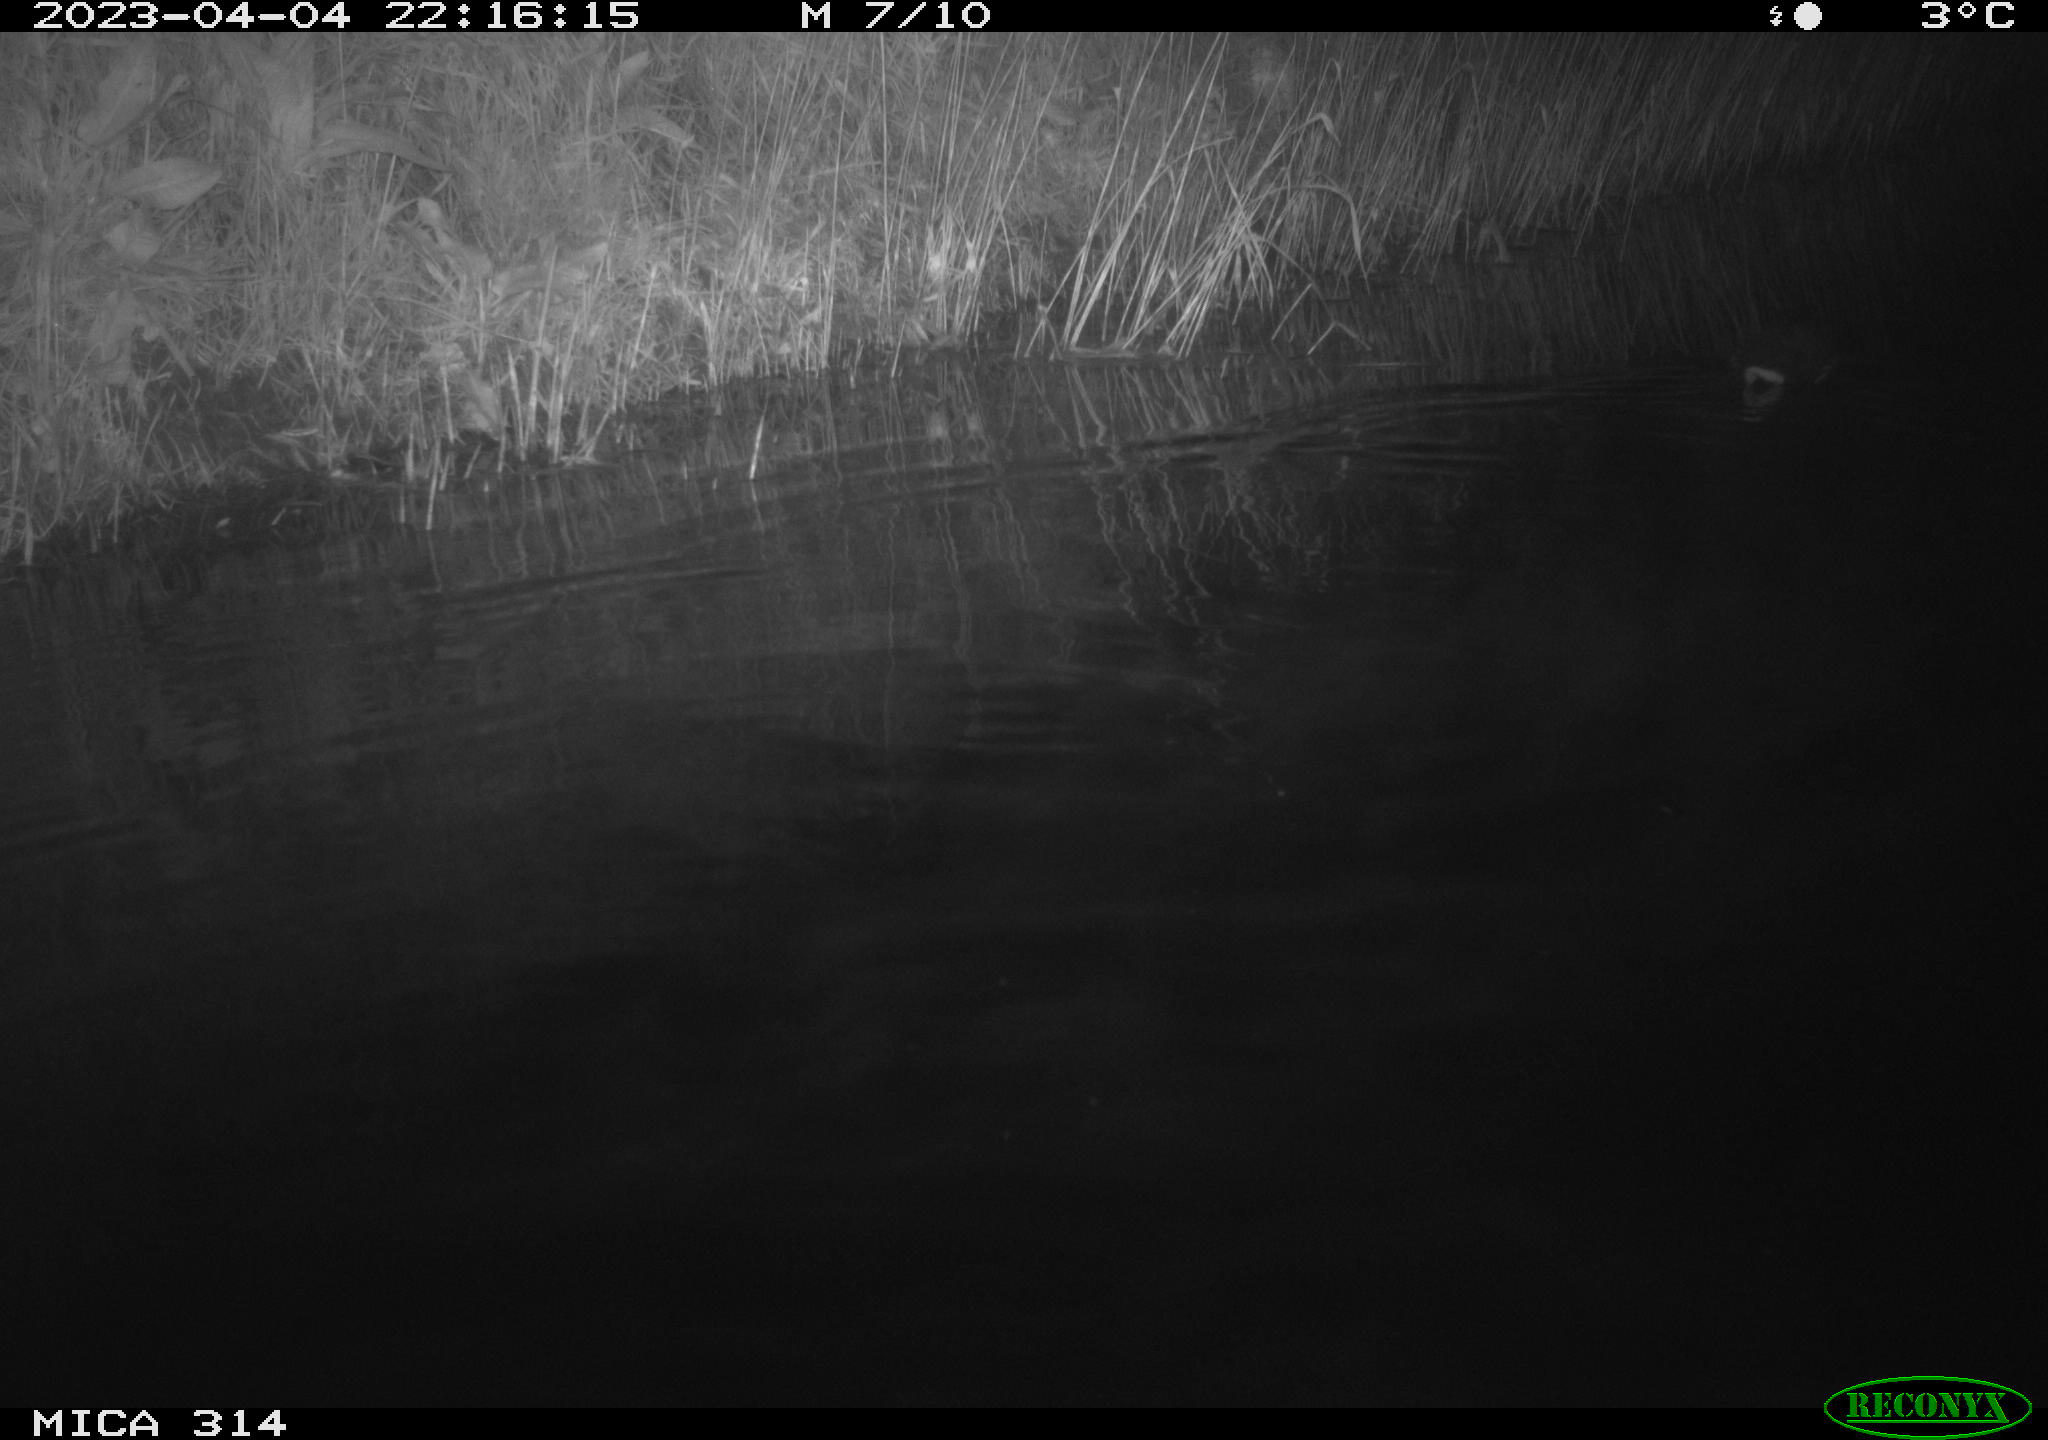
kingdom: Animalia
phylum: Chordata
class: Aves
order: Gruiformes
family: Rallidae
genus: Gallinula
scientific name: Gallinula chloropus
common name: Common moorhen
